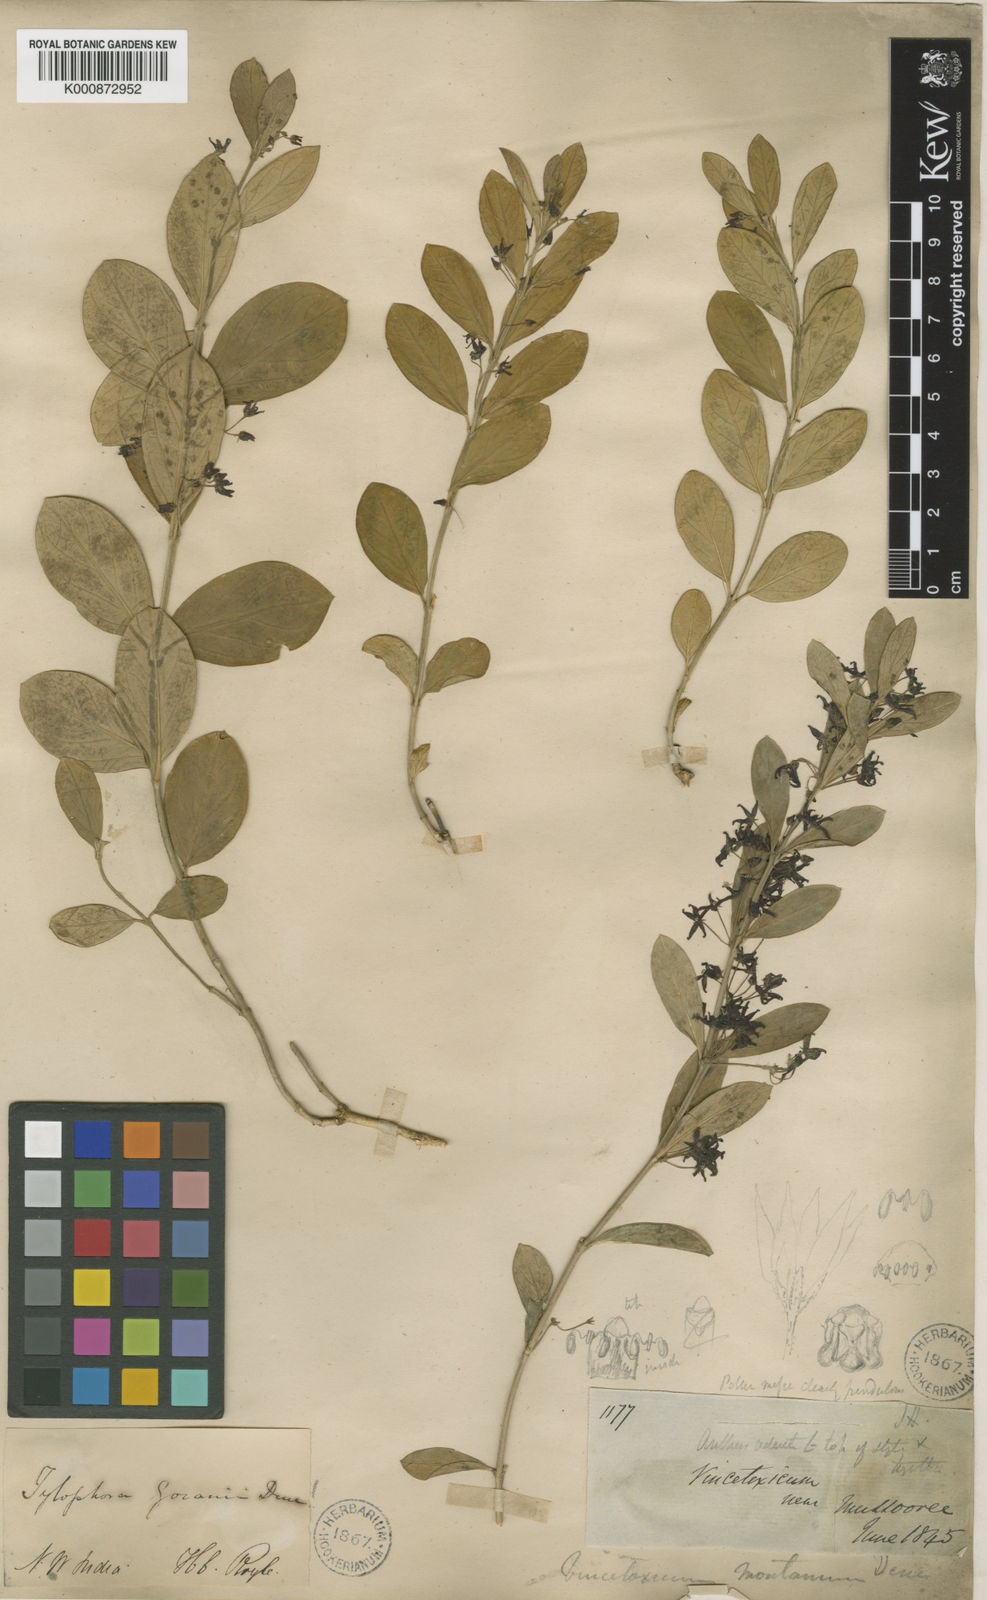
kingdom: Plantae
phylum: Tracheophyta
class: Magnoliopsida
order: Gentianales
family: Apocynaceae
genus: Vincetoxicum
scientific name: Vincetoxicum govanii
